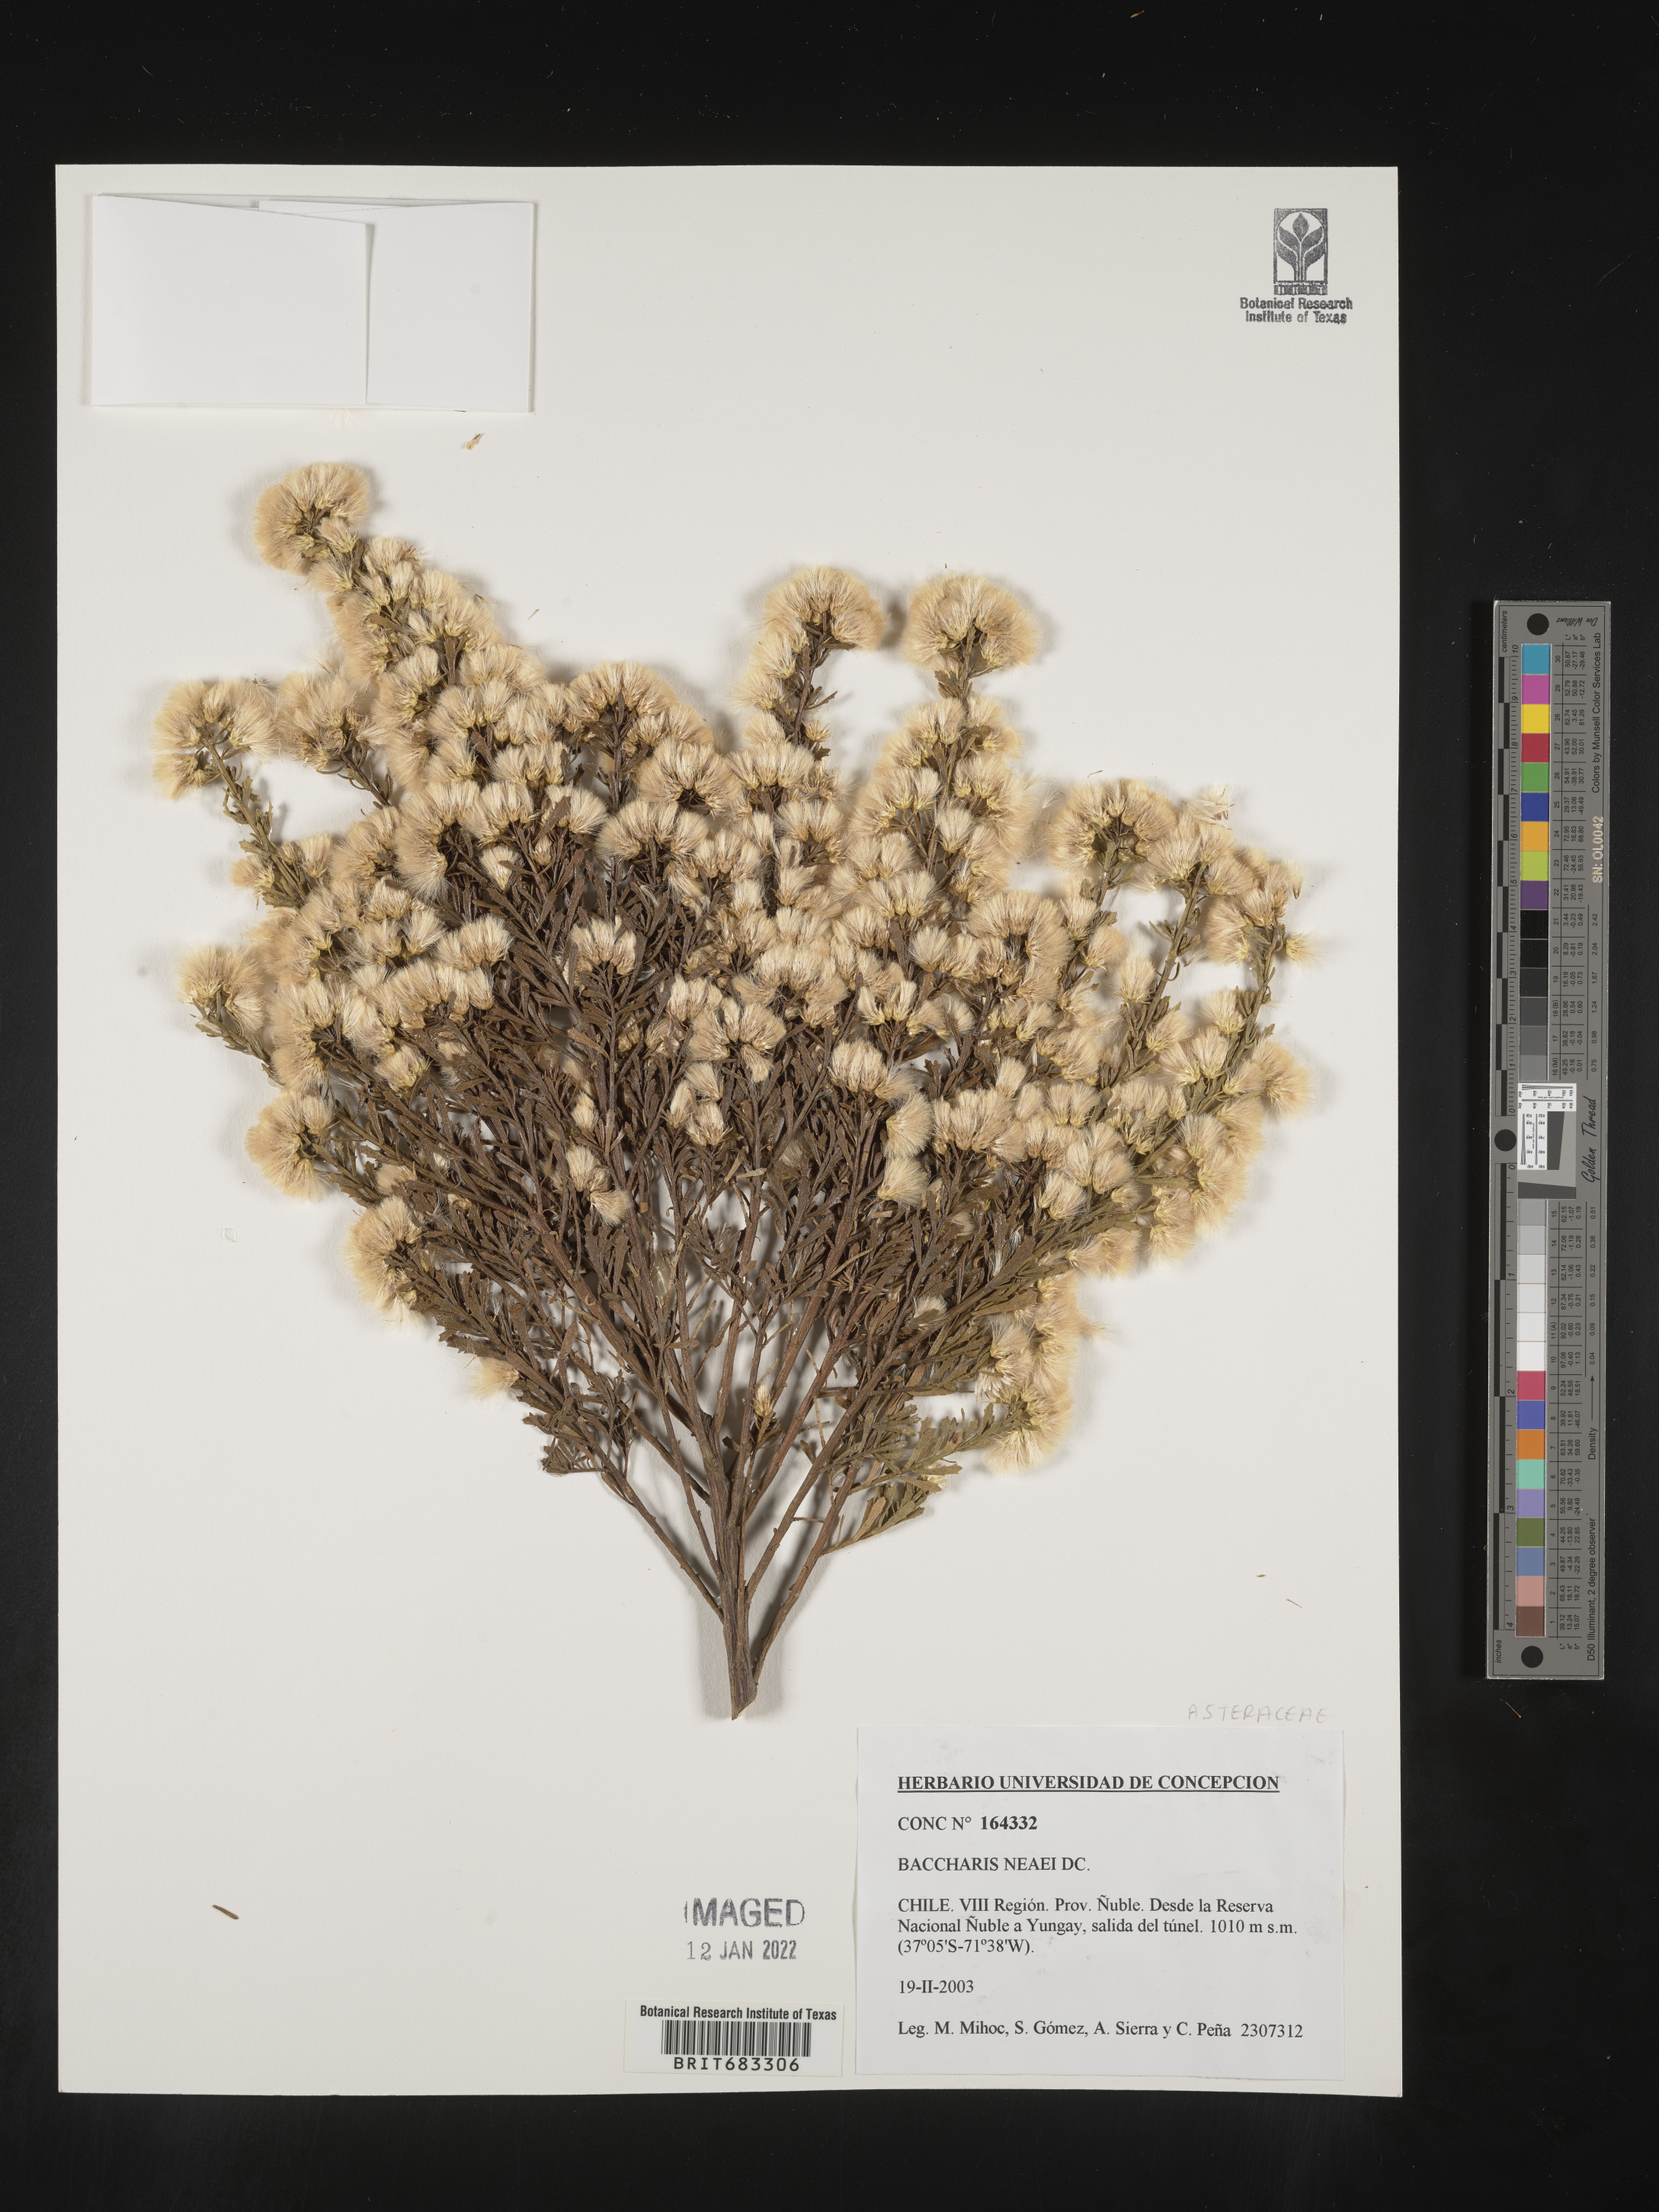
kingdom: Plantae
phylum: Tracheophyta
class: Magnoliopsida
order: Asterales
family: Asteraceae
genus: Baccharis
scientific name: Baccharis
